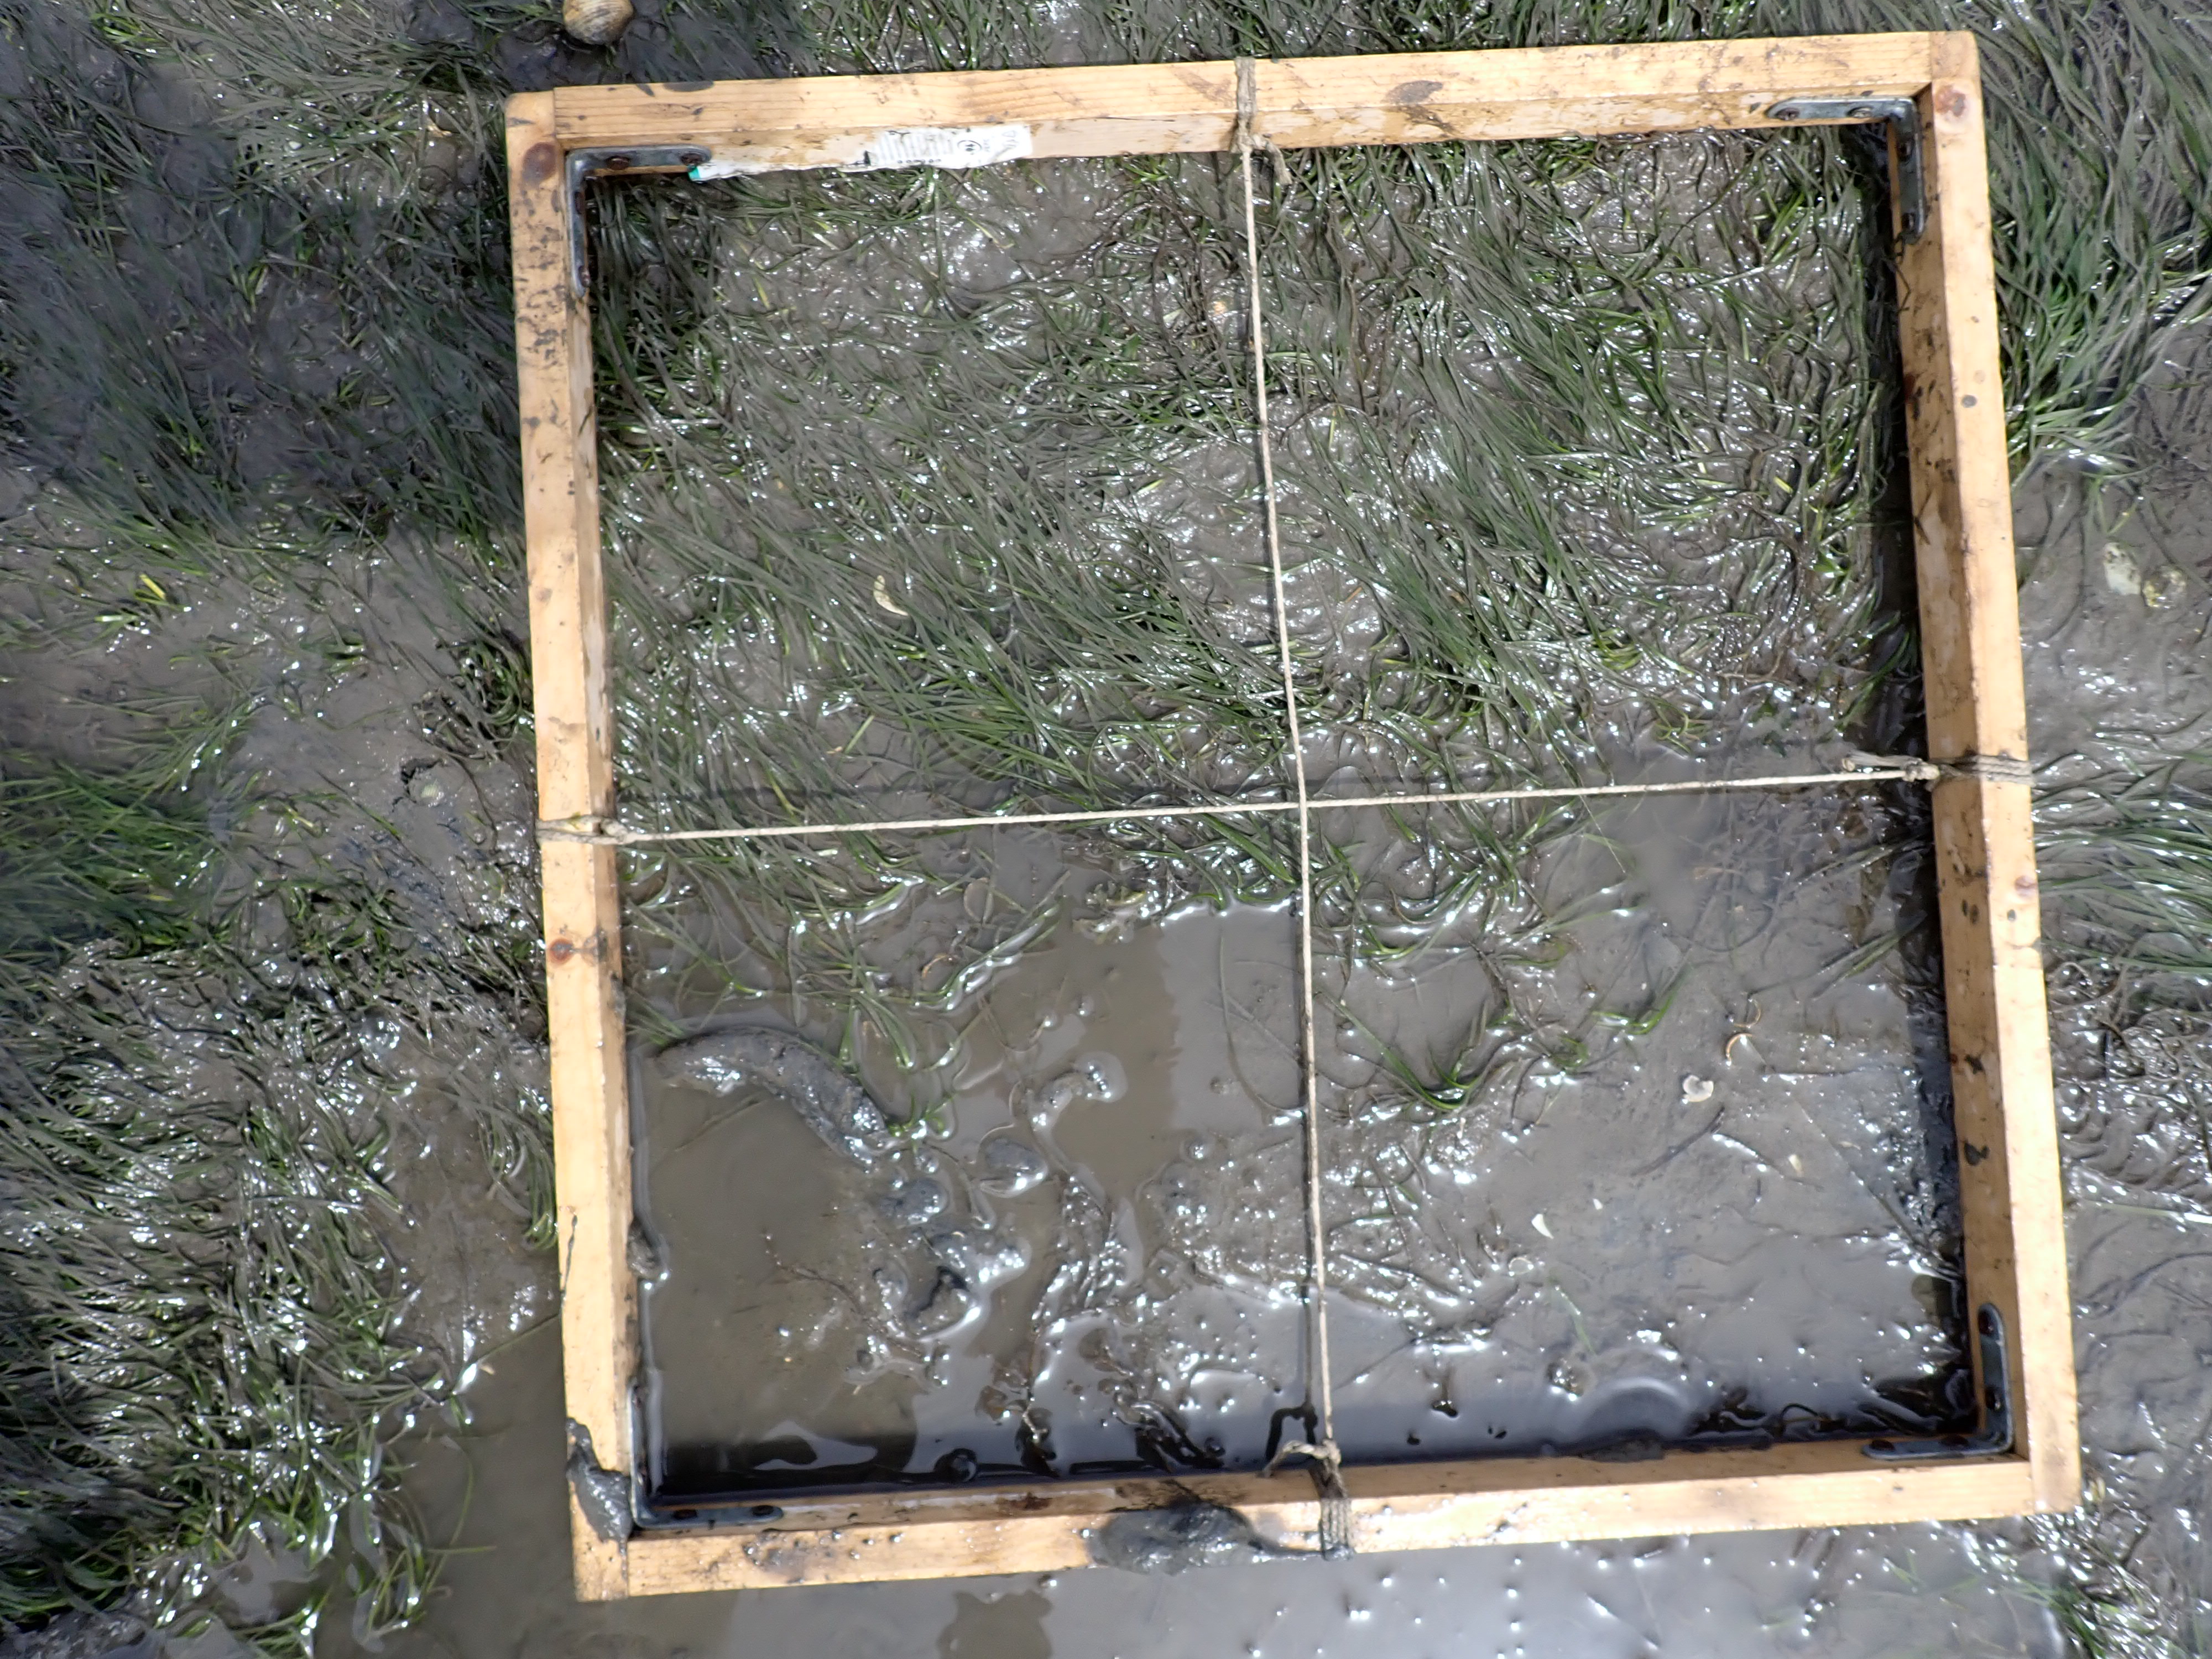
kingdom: Plantae
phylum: Tracheophyta
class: Liliopsida
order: Alismatales
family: Zosteraceae
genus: Zostera
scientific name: Zostera noltii
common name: Dwarf eelgrass
